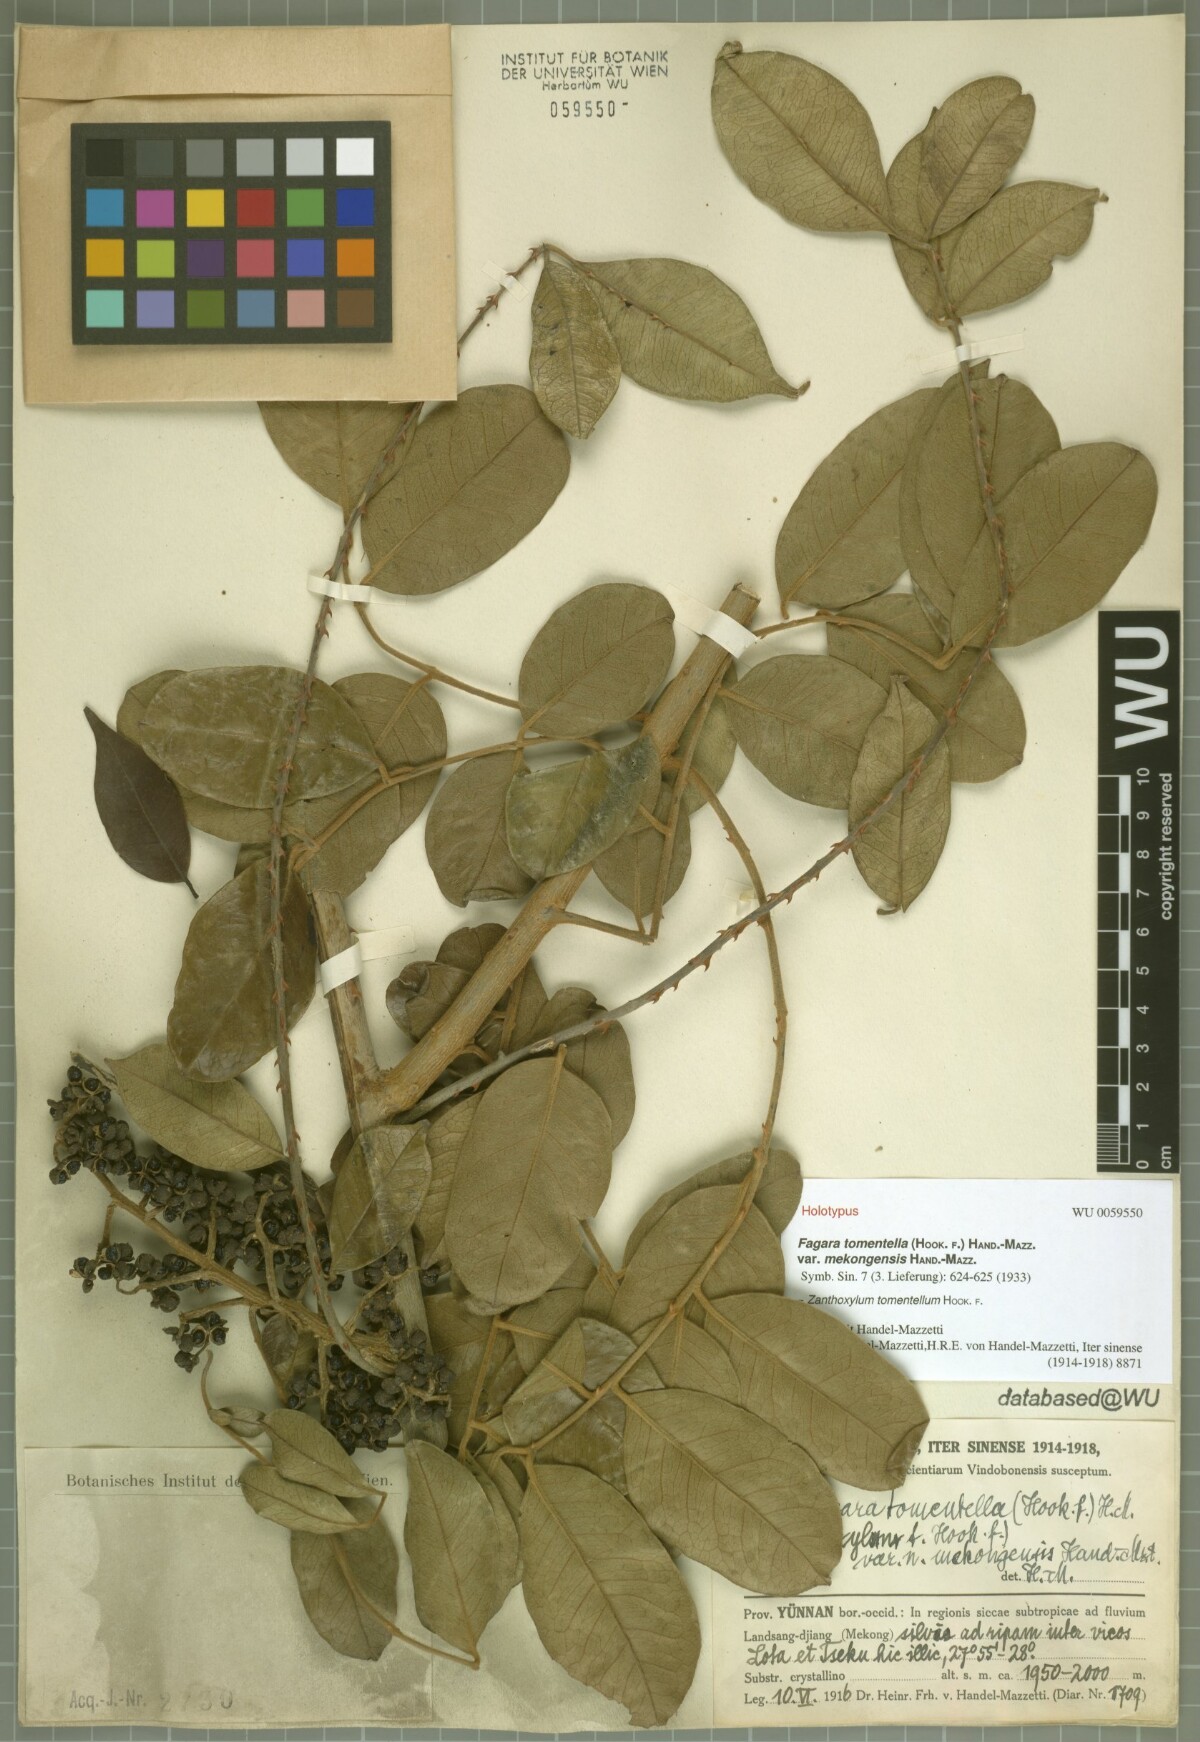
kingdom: Plantae
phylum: Tracheophyta
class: Magnoliopsida
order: Sapindales
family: Rutaceae
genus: Zanthoxylum
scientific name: Zanthoxylum tomentellum
